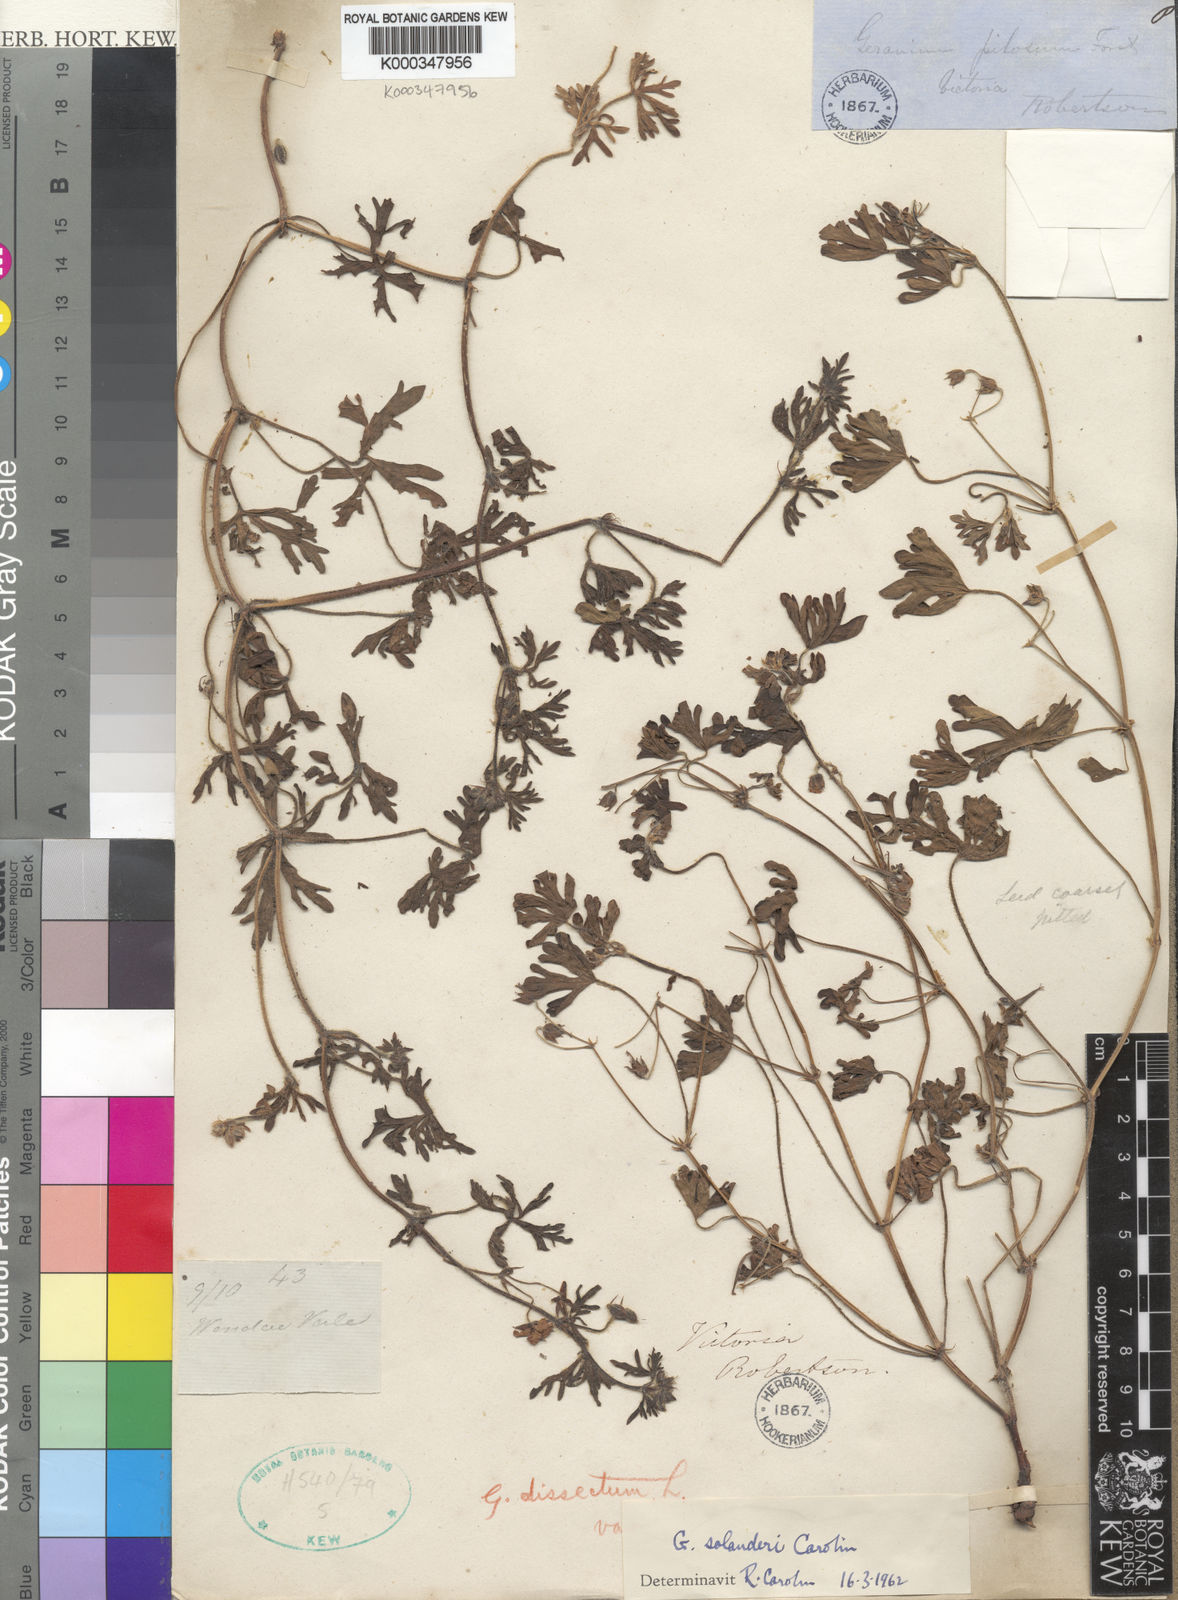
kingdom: Plantae
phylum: Tracheophyta
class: Magnoliopsida
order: Geraniales
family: Geraniaceae
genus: Geranium
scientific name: Geranium solanderi
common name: Solander's geranium
